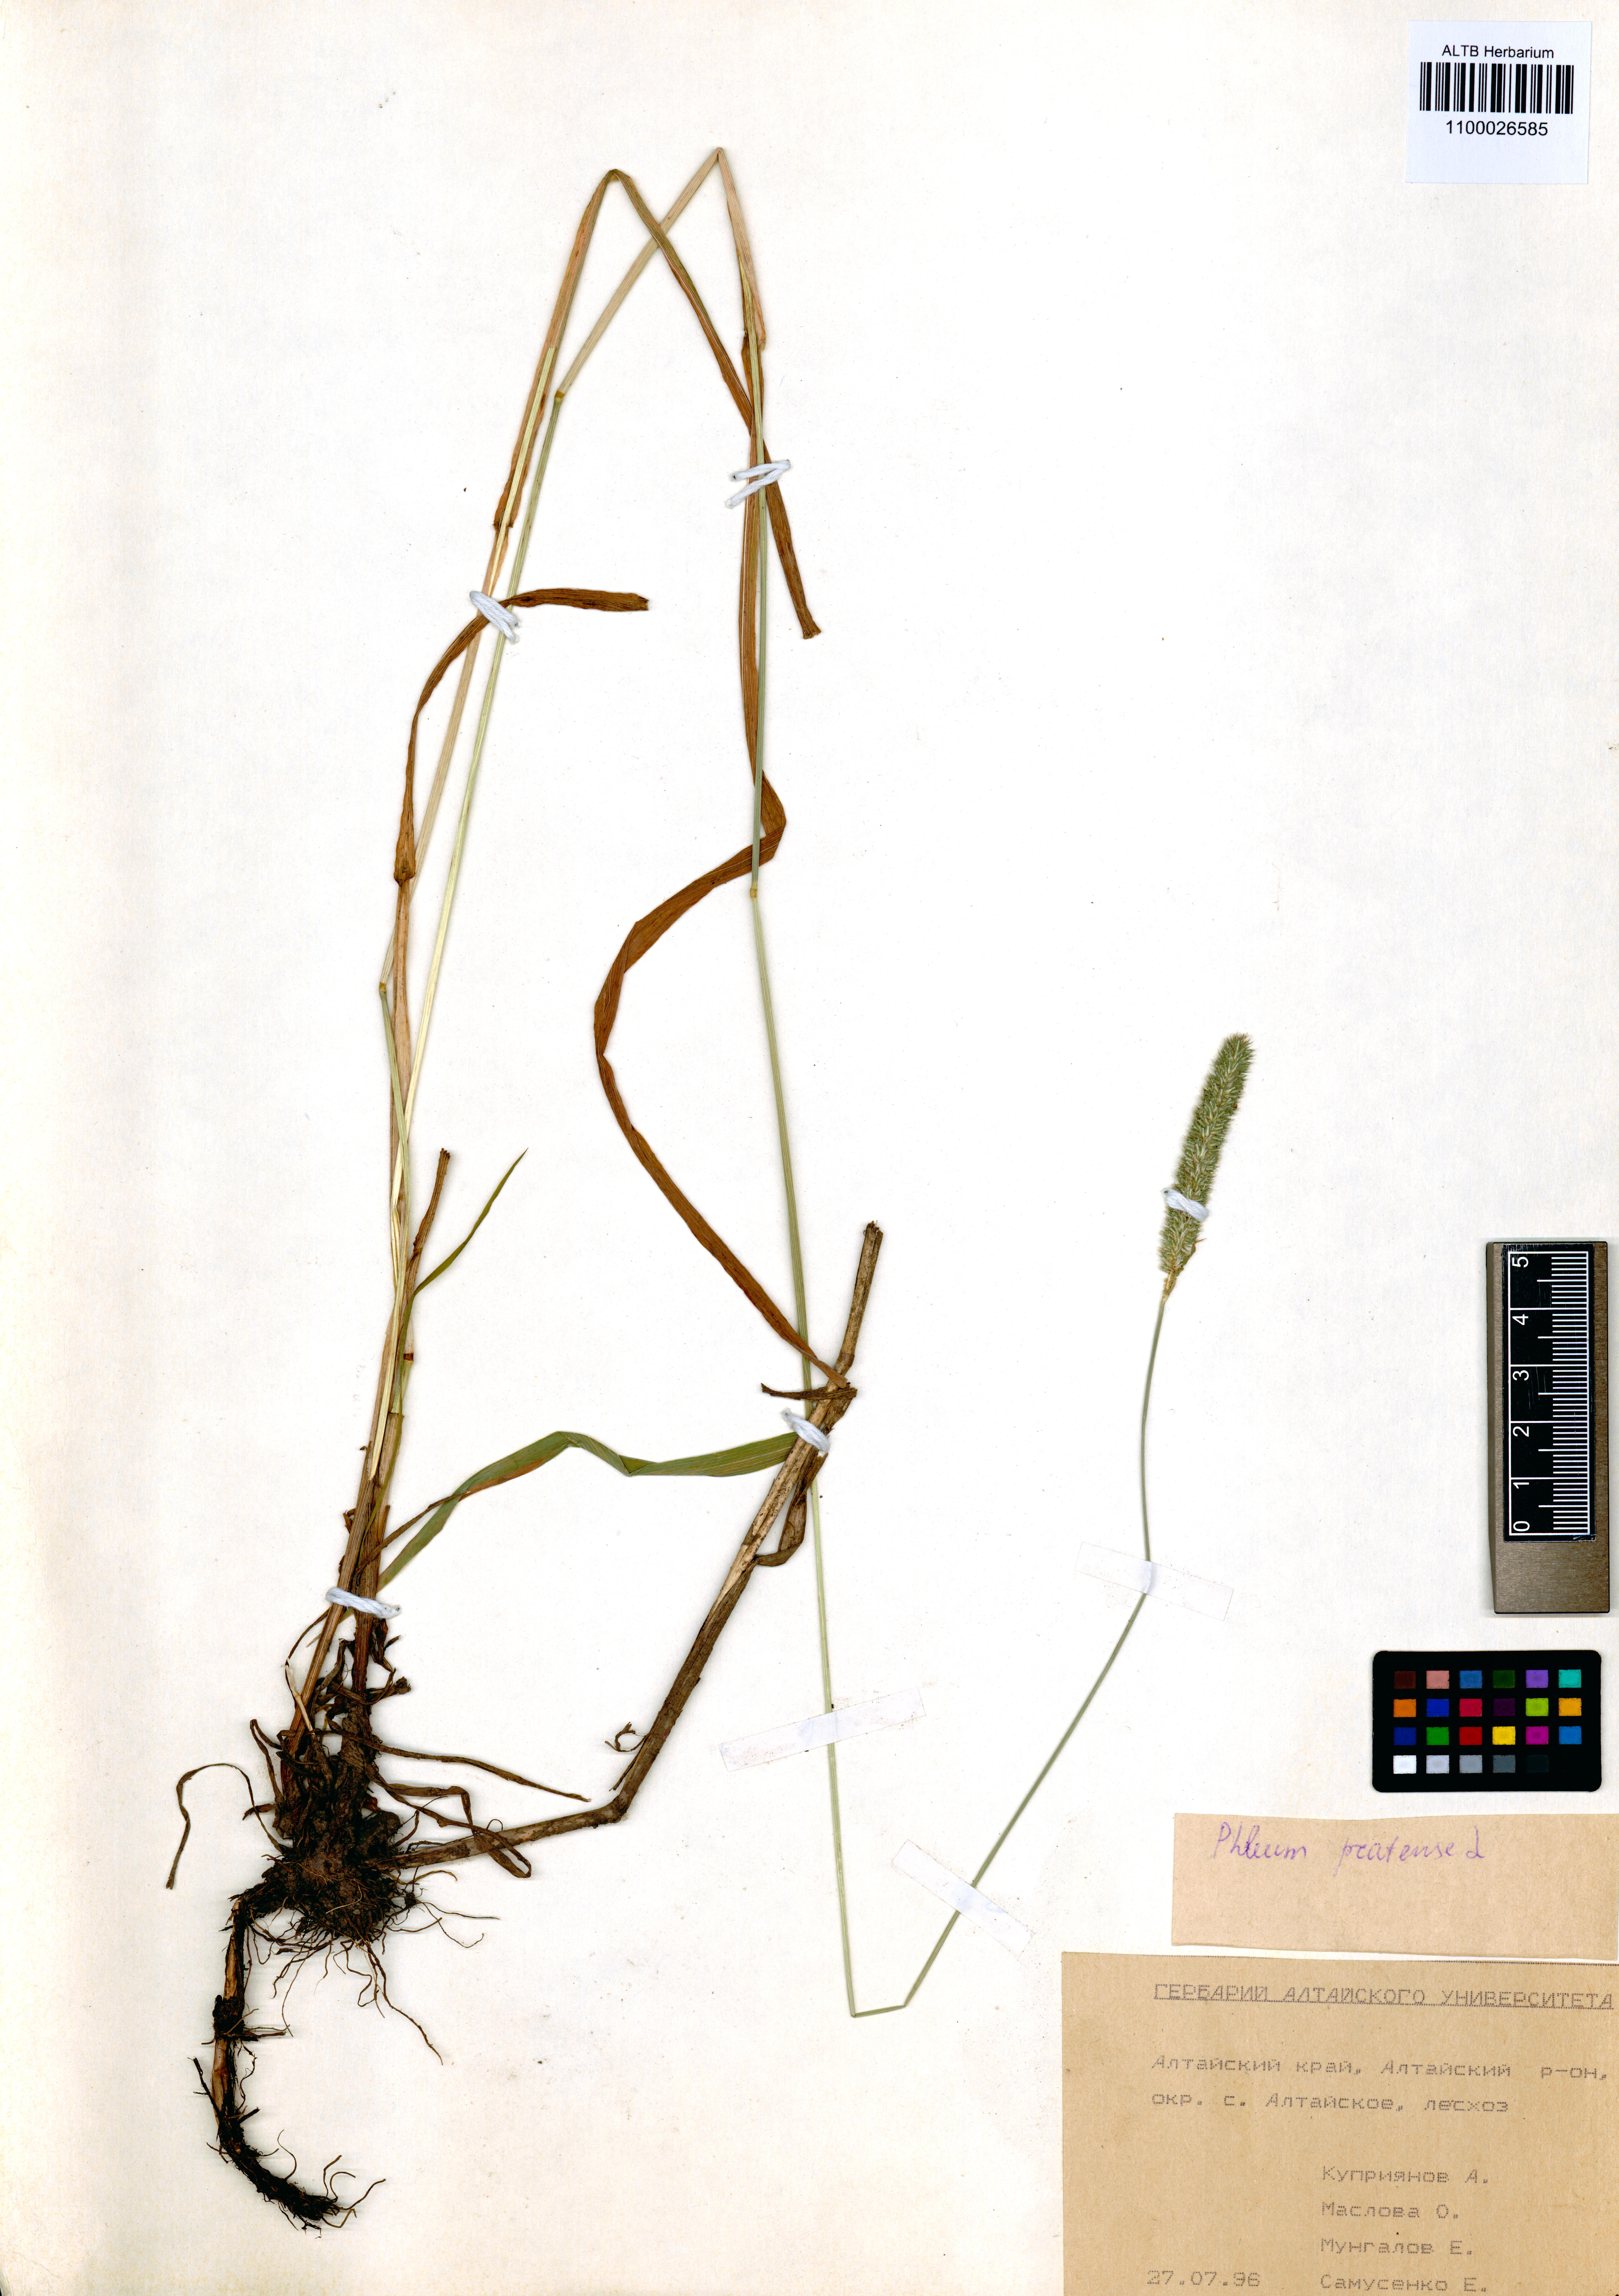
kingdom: Plantae
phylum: Tracheophyta
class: Liliopsida
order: Poales
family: Poaceae
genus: Phleum
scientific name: Phleum pratense
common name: Timothy grass
